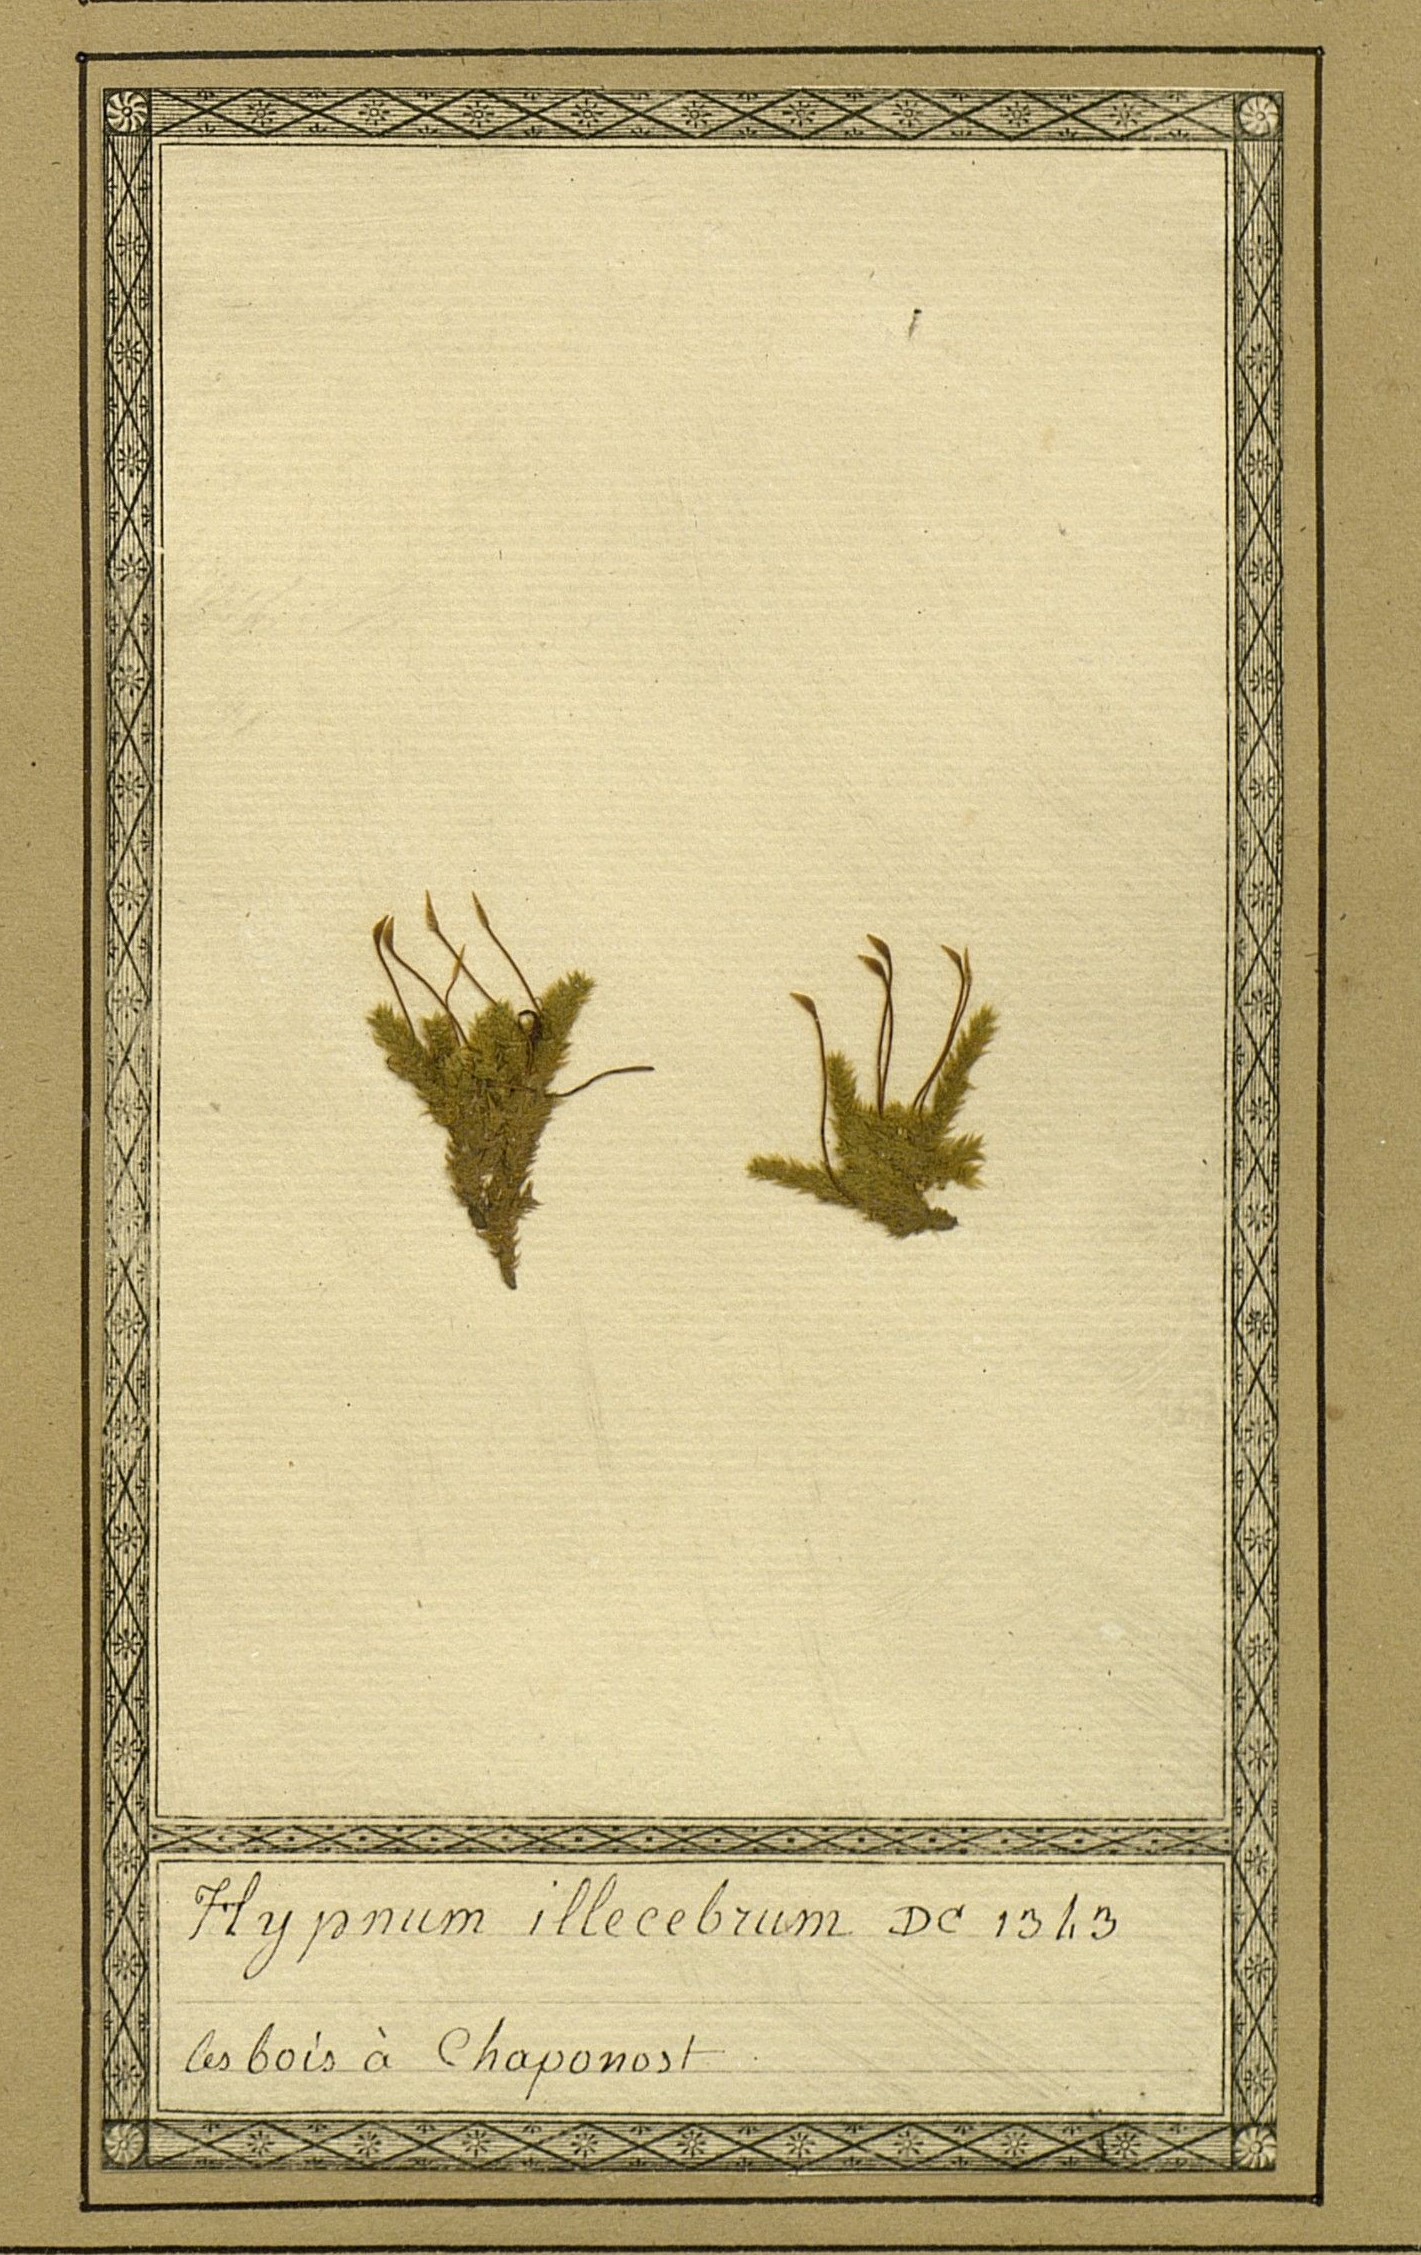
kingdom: Plantae
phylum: Bryophyta
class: Bryopsida
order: Hypnales
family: Brachytheciaceae
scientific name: Brachytheciaceae
